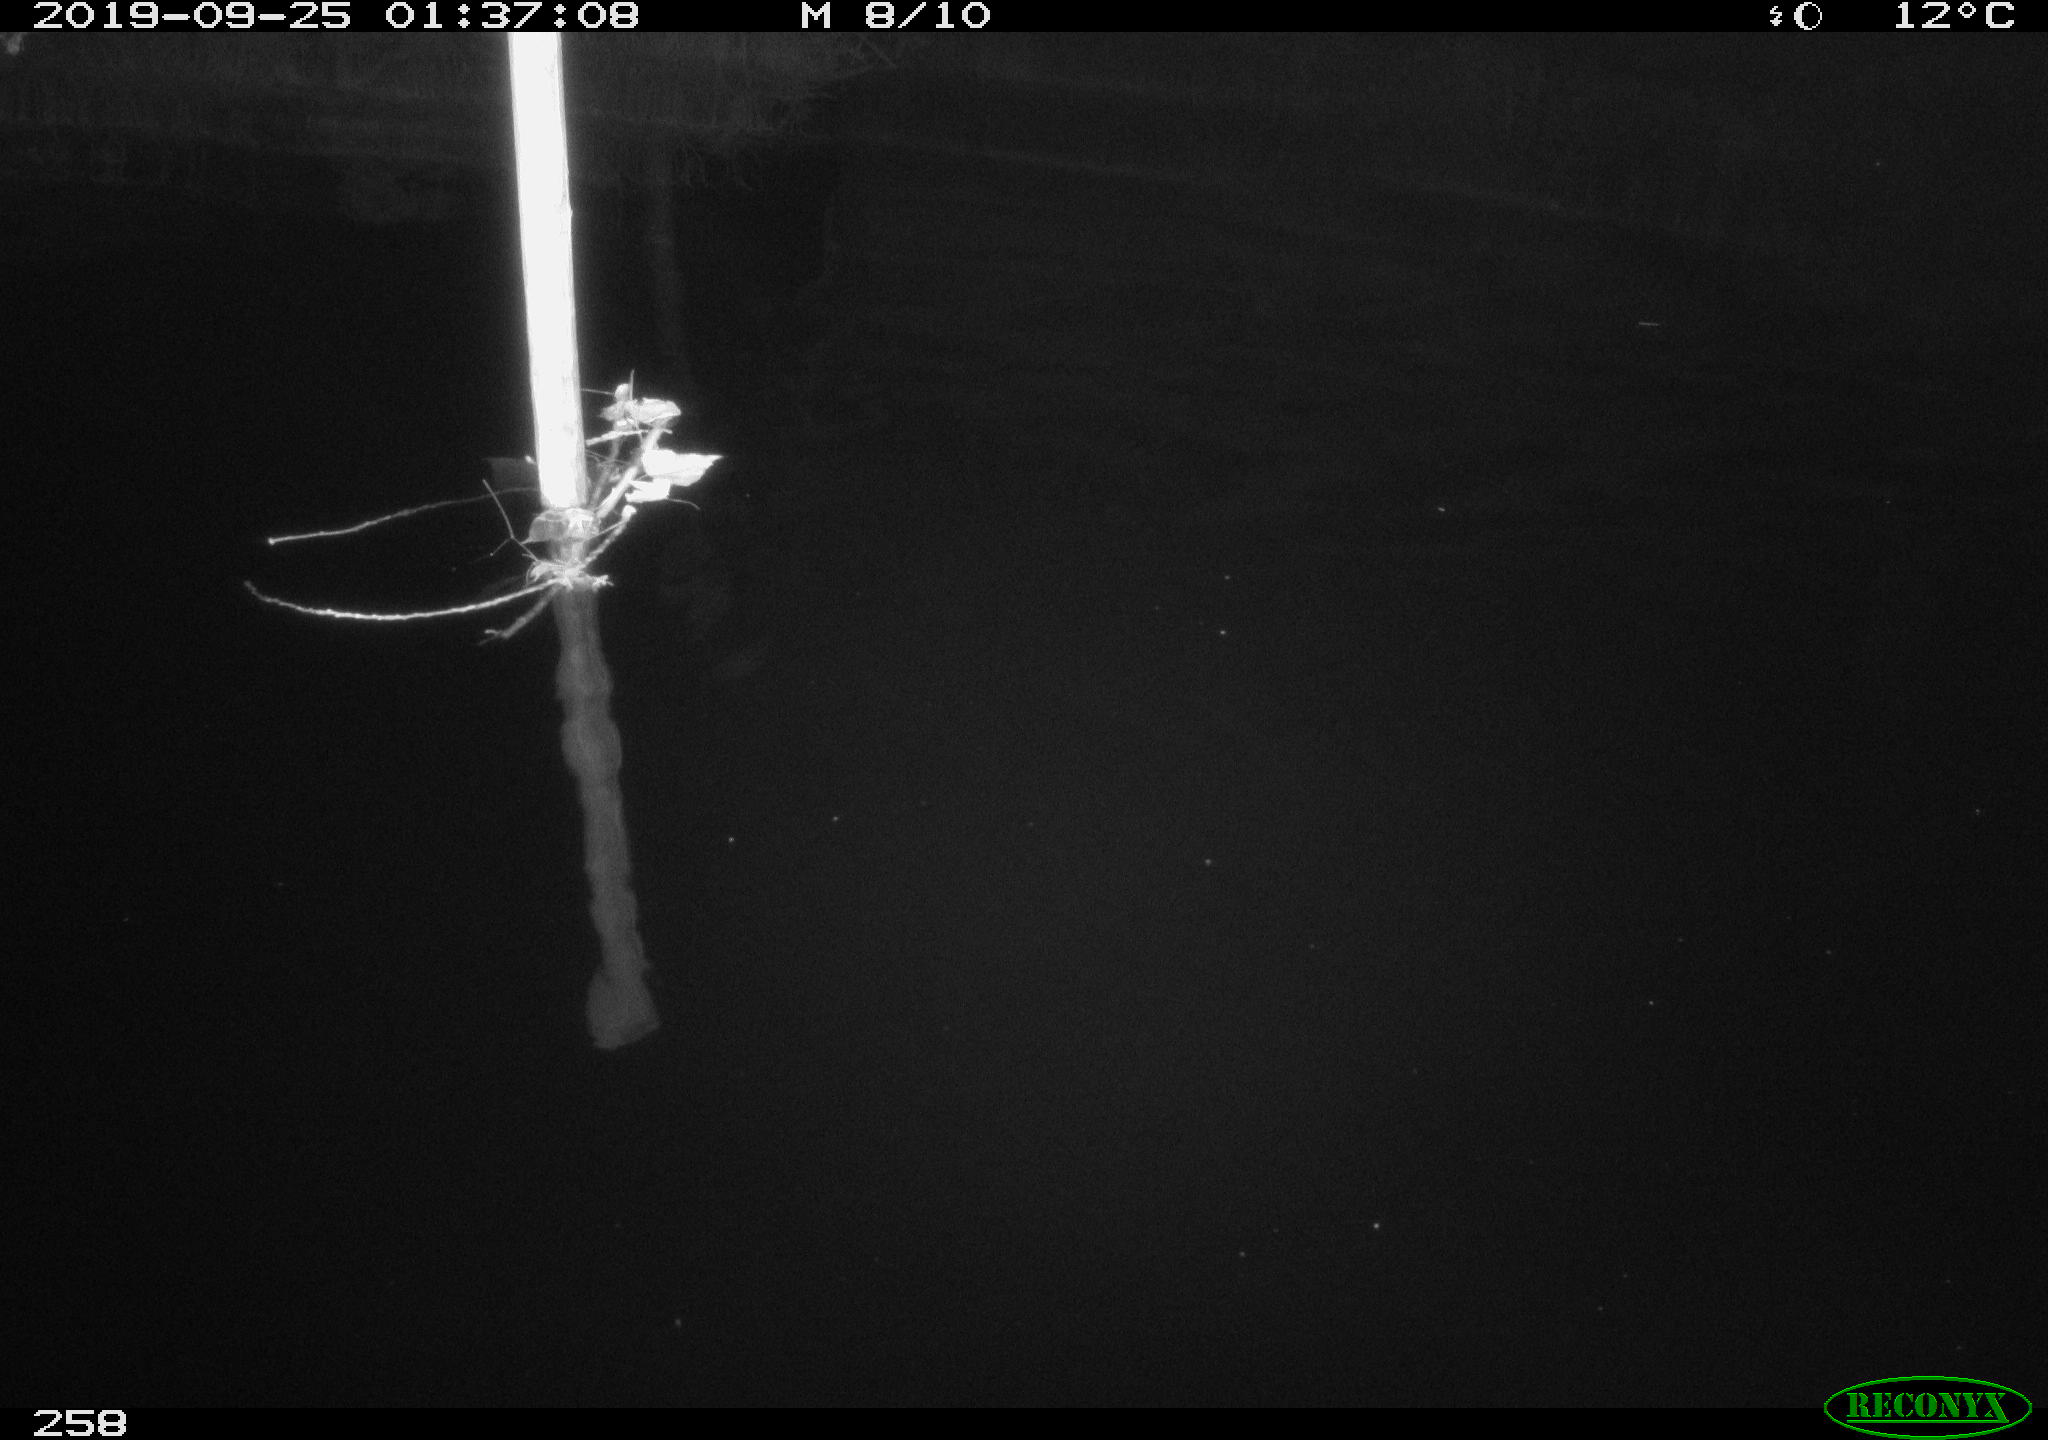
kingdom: Animalia
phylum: Chordata
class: Aves
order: Anseriformes
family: Anatidae
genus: Anas
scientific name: Anas platyrhynchos
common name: Mallard
